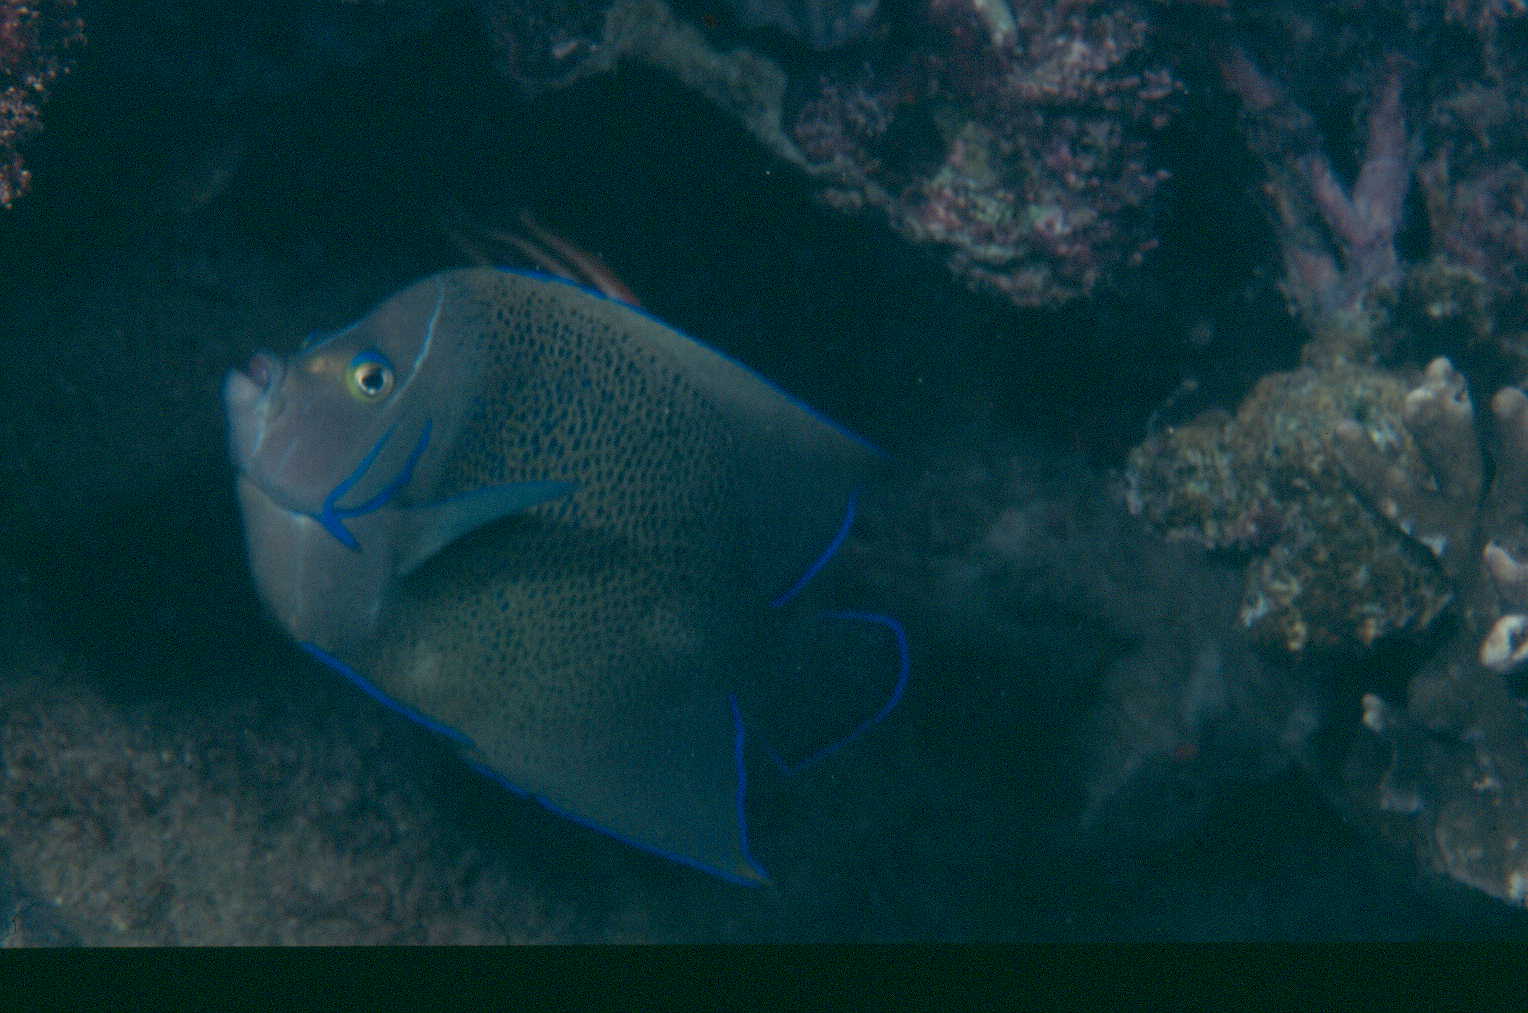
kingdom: Animalia
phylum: Chordata
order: Perciformes
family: Pomacanthidae
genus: Pomacanthus
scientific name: Pomacanthus semicirculatus
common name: Semicircle angelfish
